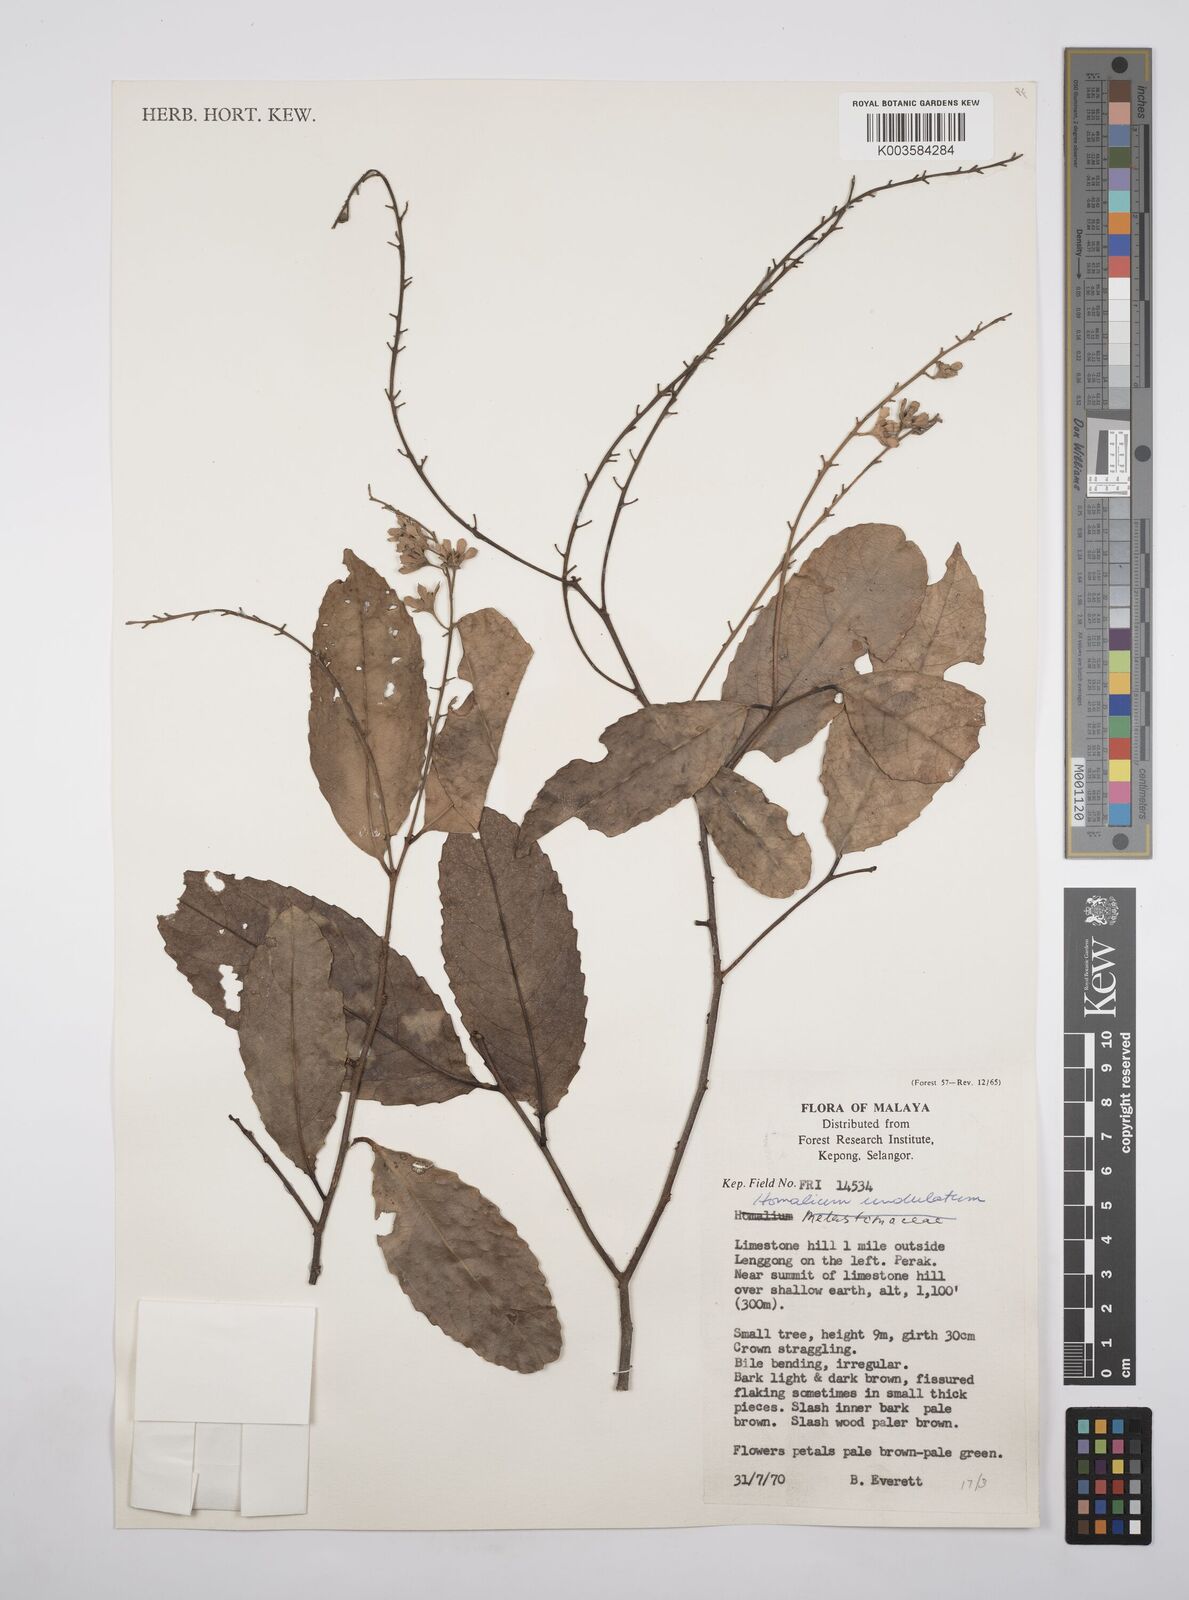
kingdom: Plantae
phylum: Tracheophyta
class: Magnoliopsida
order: Malpighiales
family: Salicaceae
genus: Homalium
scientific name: Homalium undulatum
